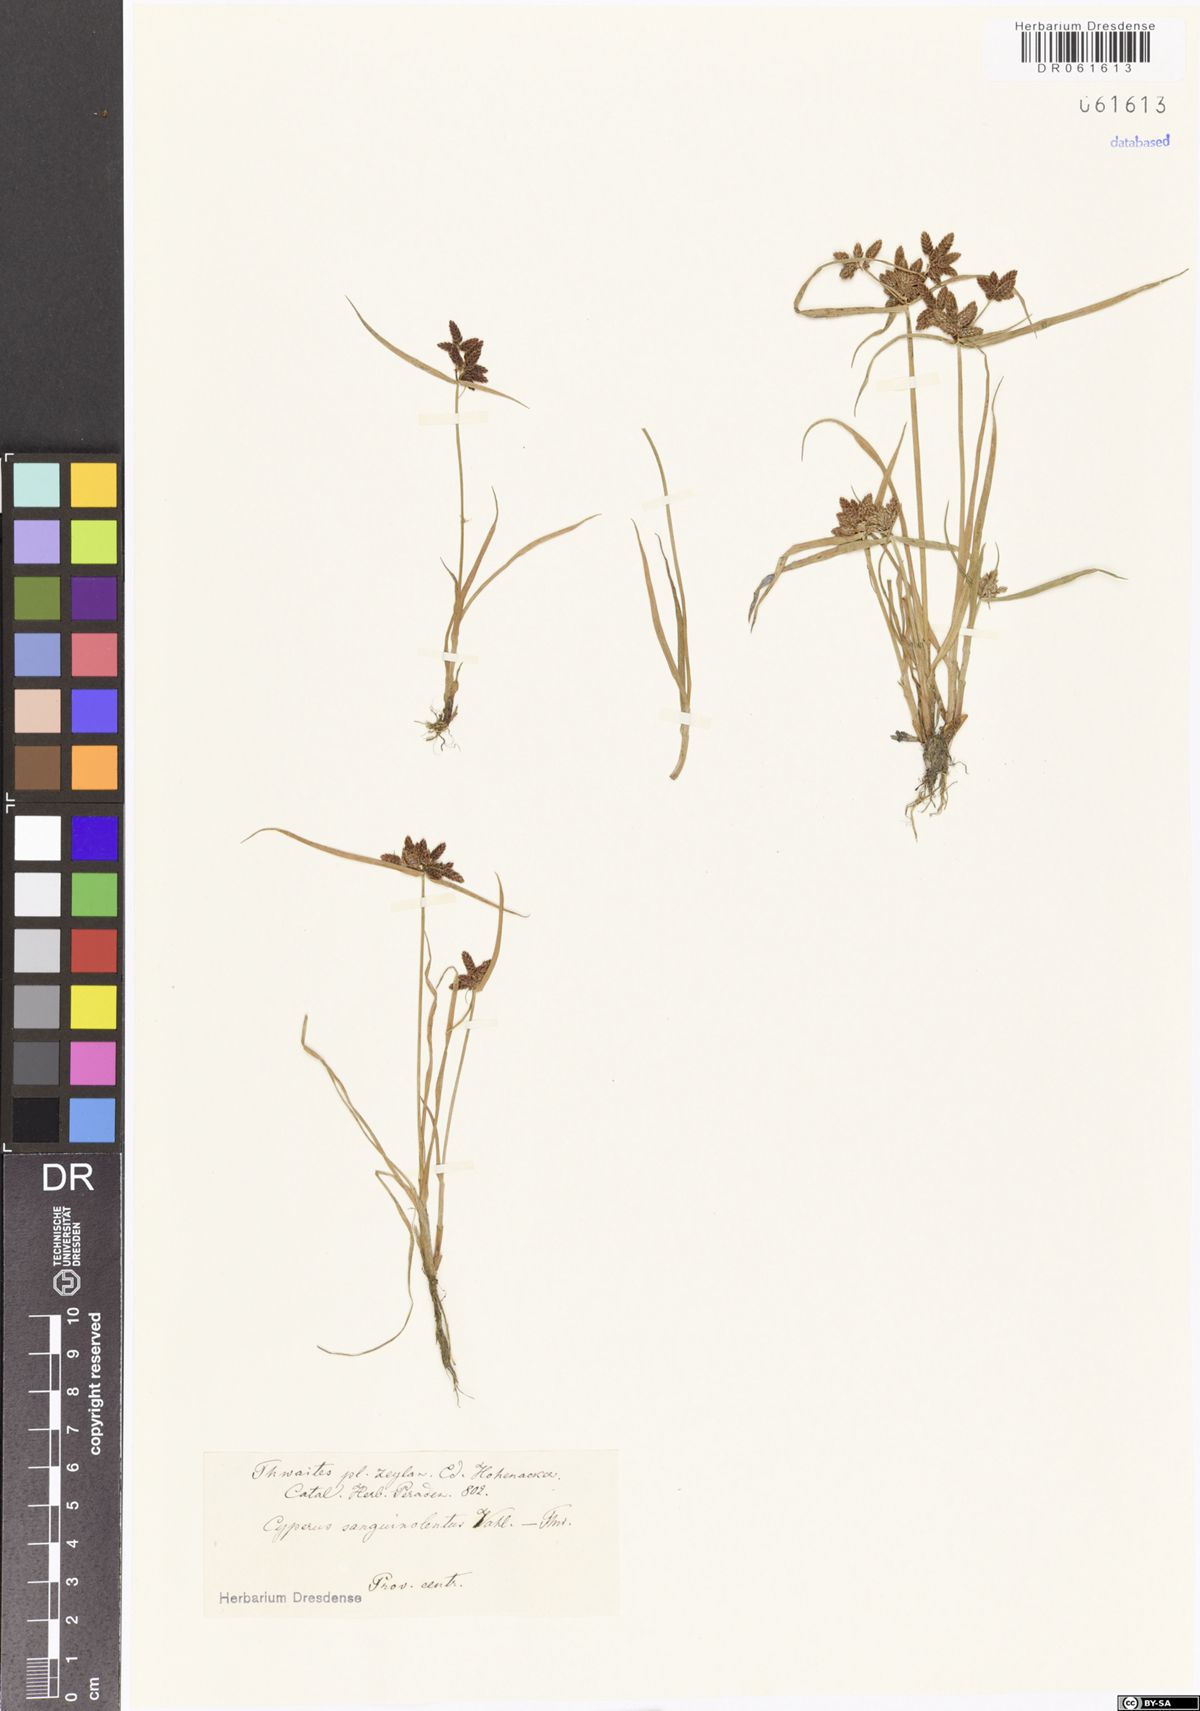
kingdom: Plantae
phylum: Tracheophyta
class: Liliopsida
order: Poales
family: Cyperaceae
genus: Cyperus
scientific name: Cyperus sanguinolentus
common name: Purpleglume flatsedge
